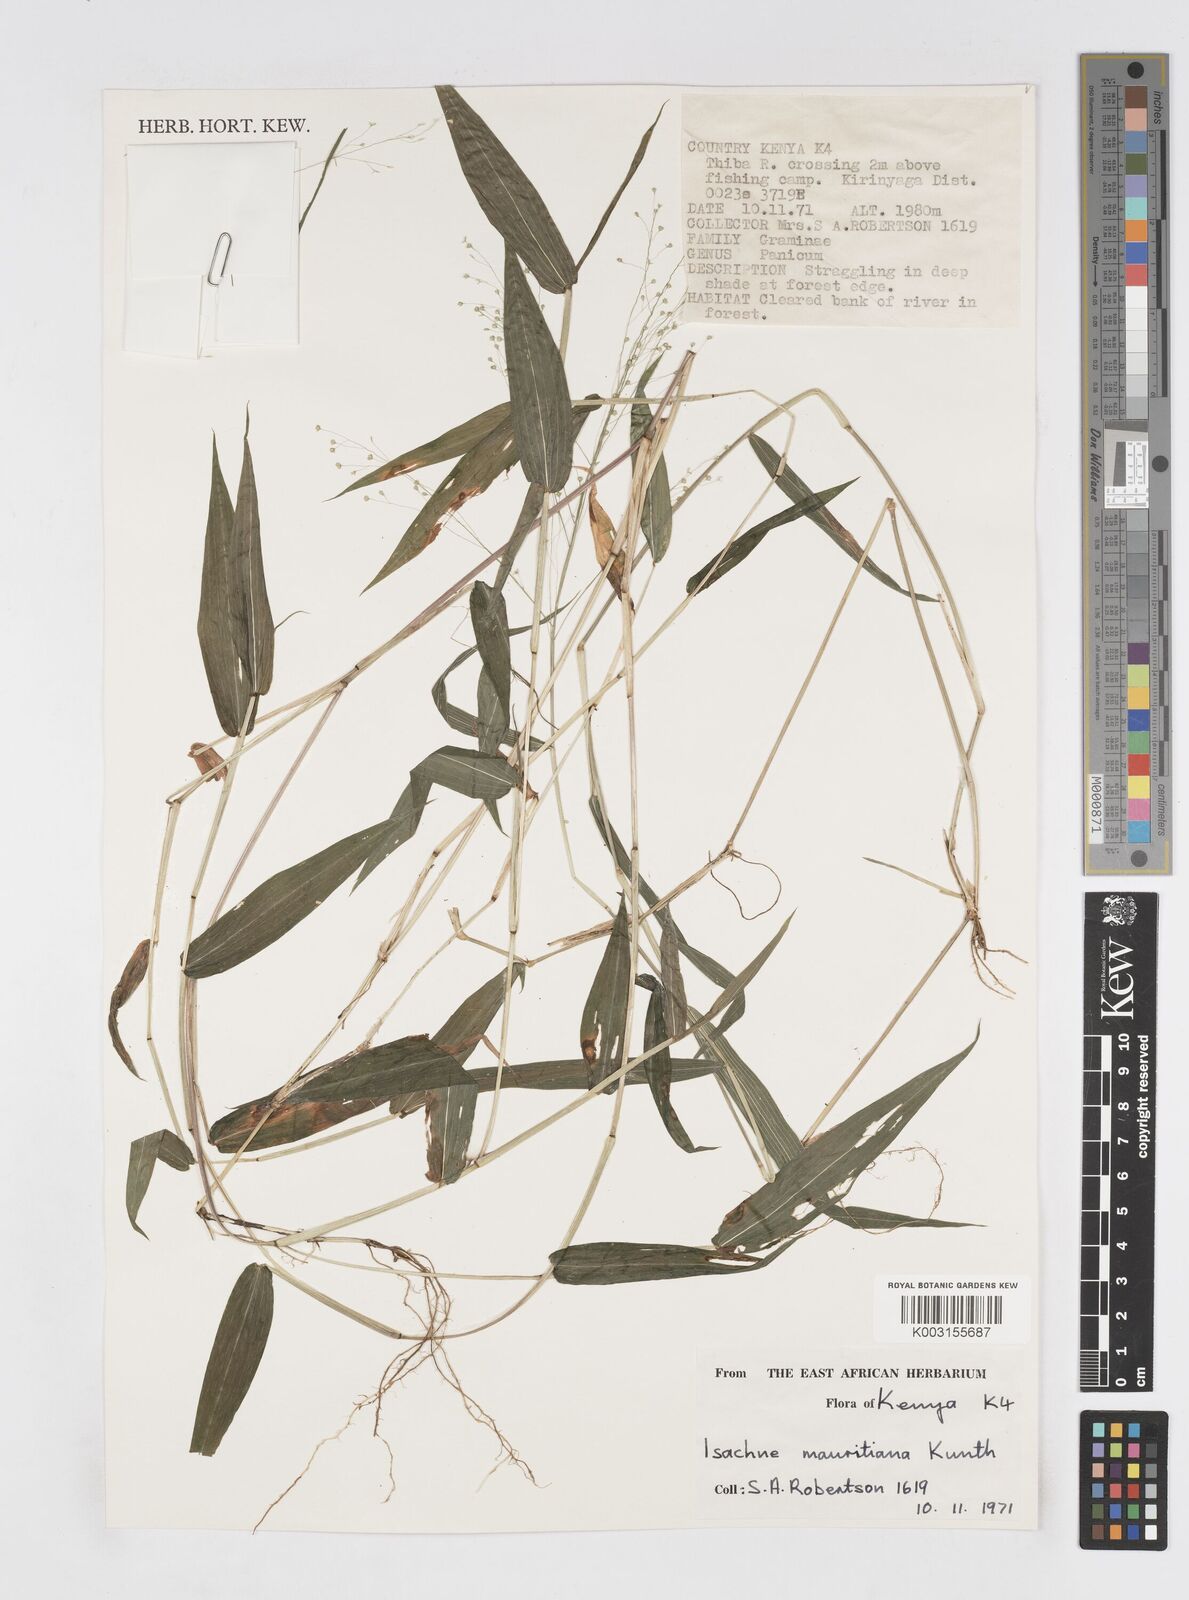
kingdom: Plantae
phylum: Tracheophyta
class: Liliopsida
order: Poales
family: Poaceae
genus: Isachne
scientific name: Isachne mauritiana
